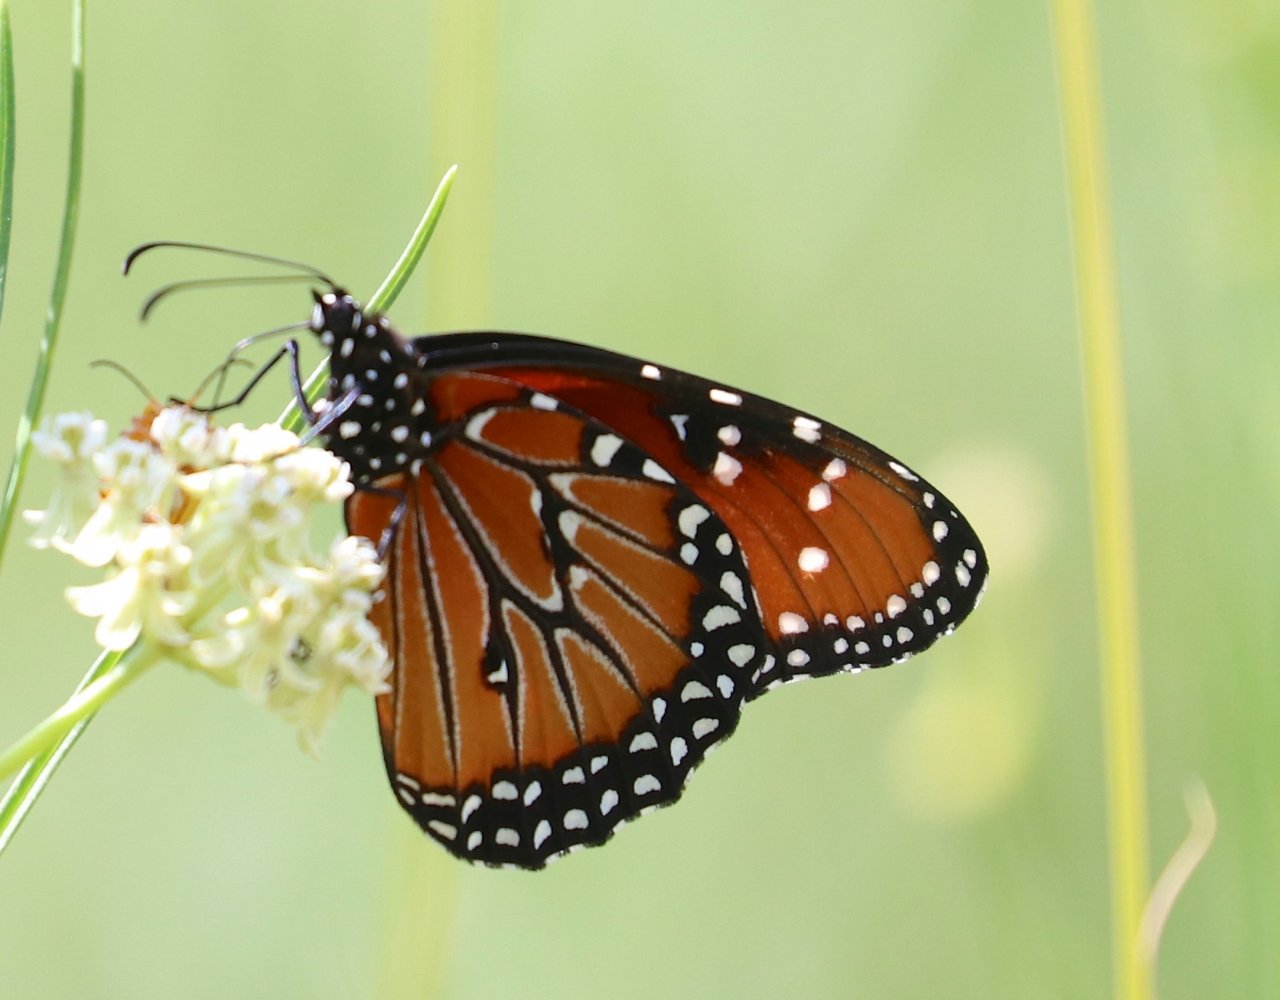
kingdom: Animalia
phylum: Arthropoda
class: Insecta
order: Lepidoptera
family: Nymphalidae
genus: Danaus
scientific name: Danaus gilippus
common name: Queen
